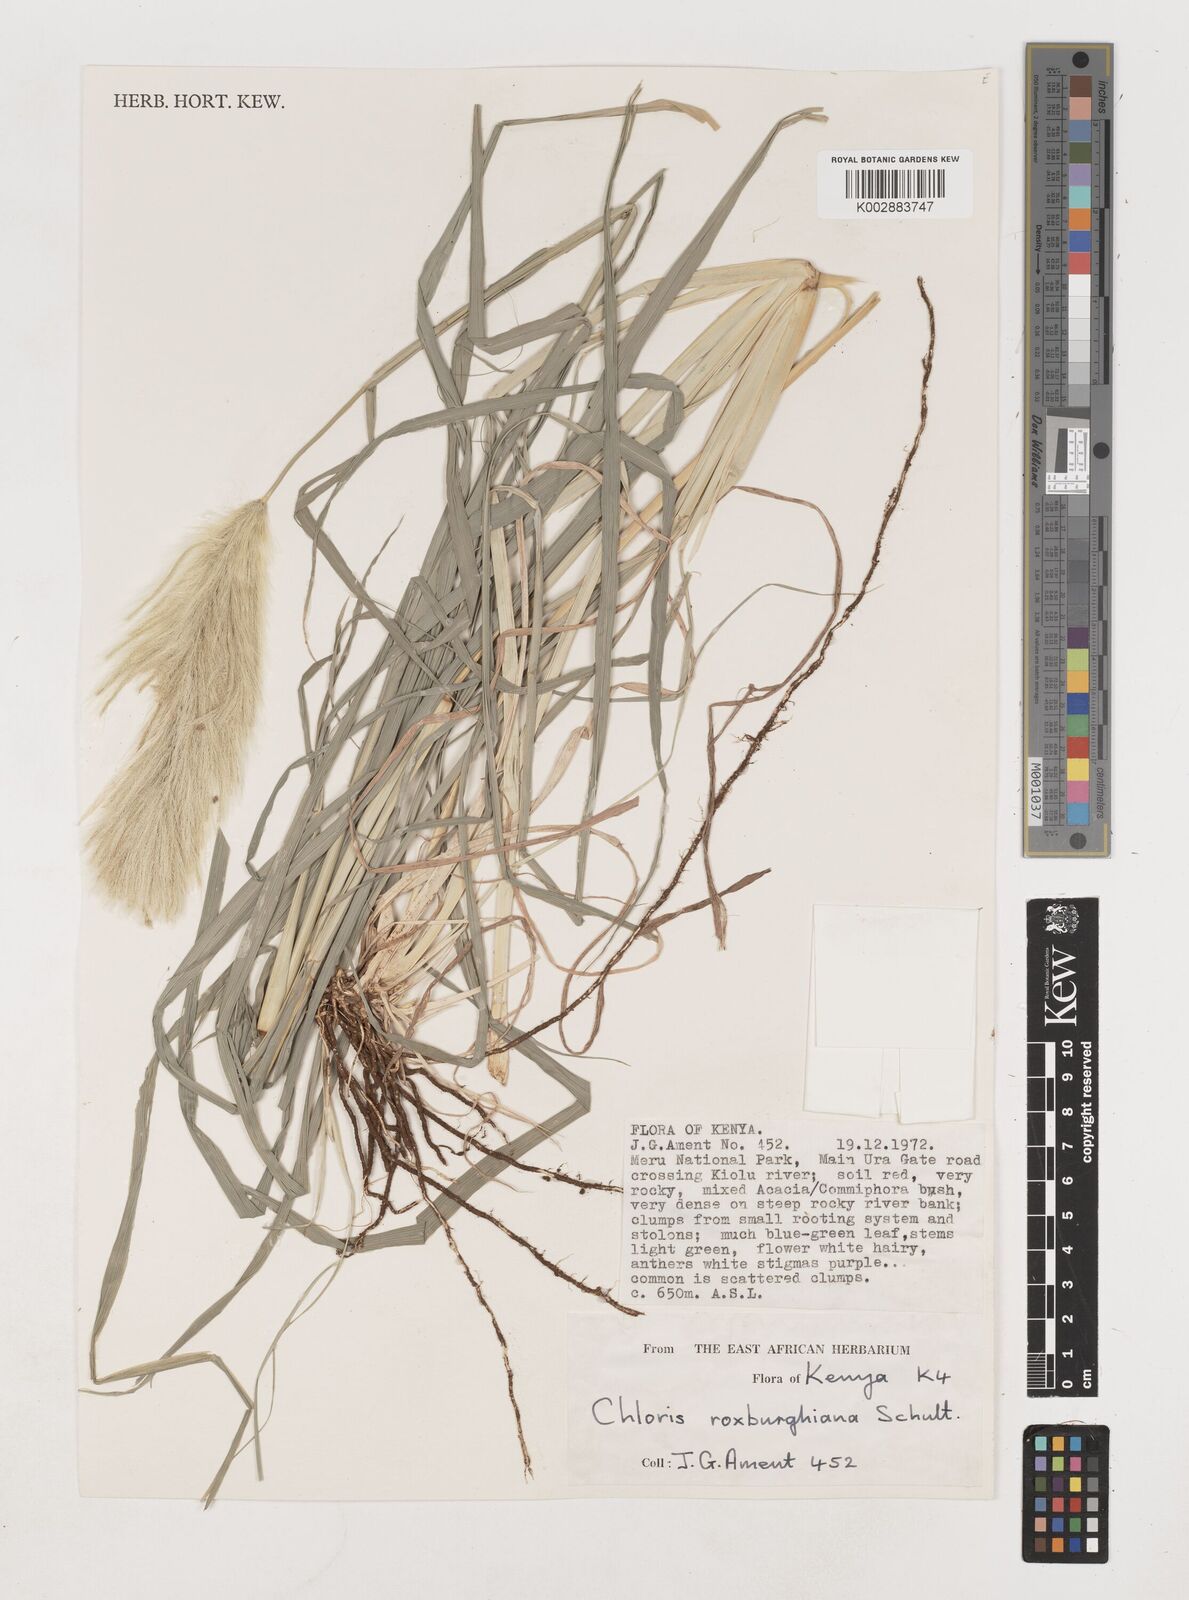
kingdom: Plantae
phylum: Tracheophyta
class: Liliopsida
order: Poales
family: Poaceae
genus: Tetrapogon
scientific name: Tetrapogon roxburghiana
